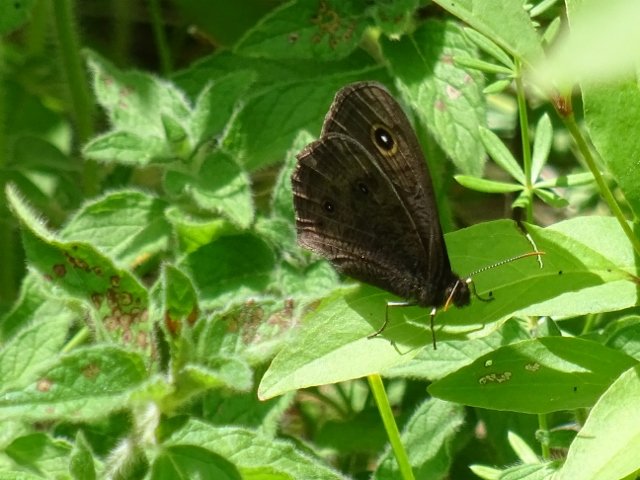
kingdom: Animalia
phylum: Arthropoda
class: Insecta
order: Lepidoptera
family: Nymphalidae
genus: Cercyonis
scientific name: Cercyonis pegala
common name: Common Wood-Nymph
